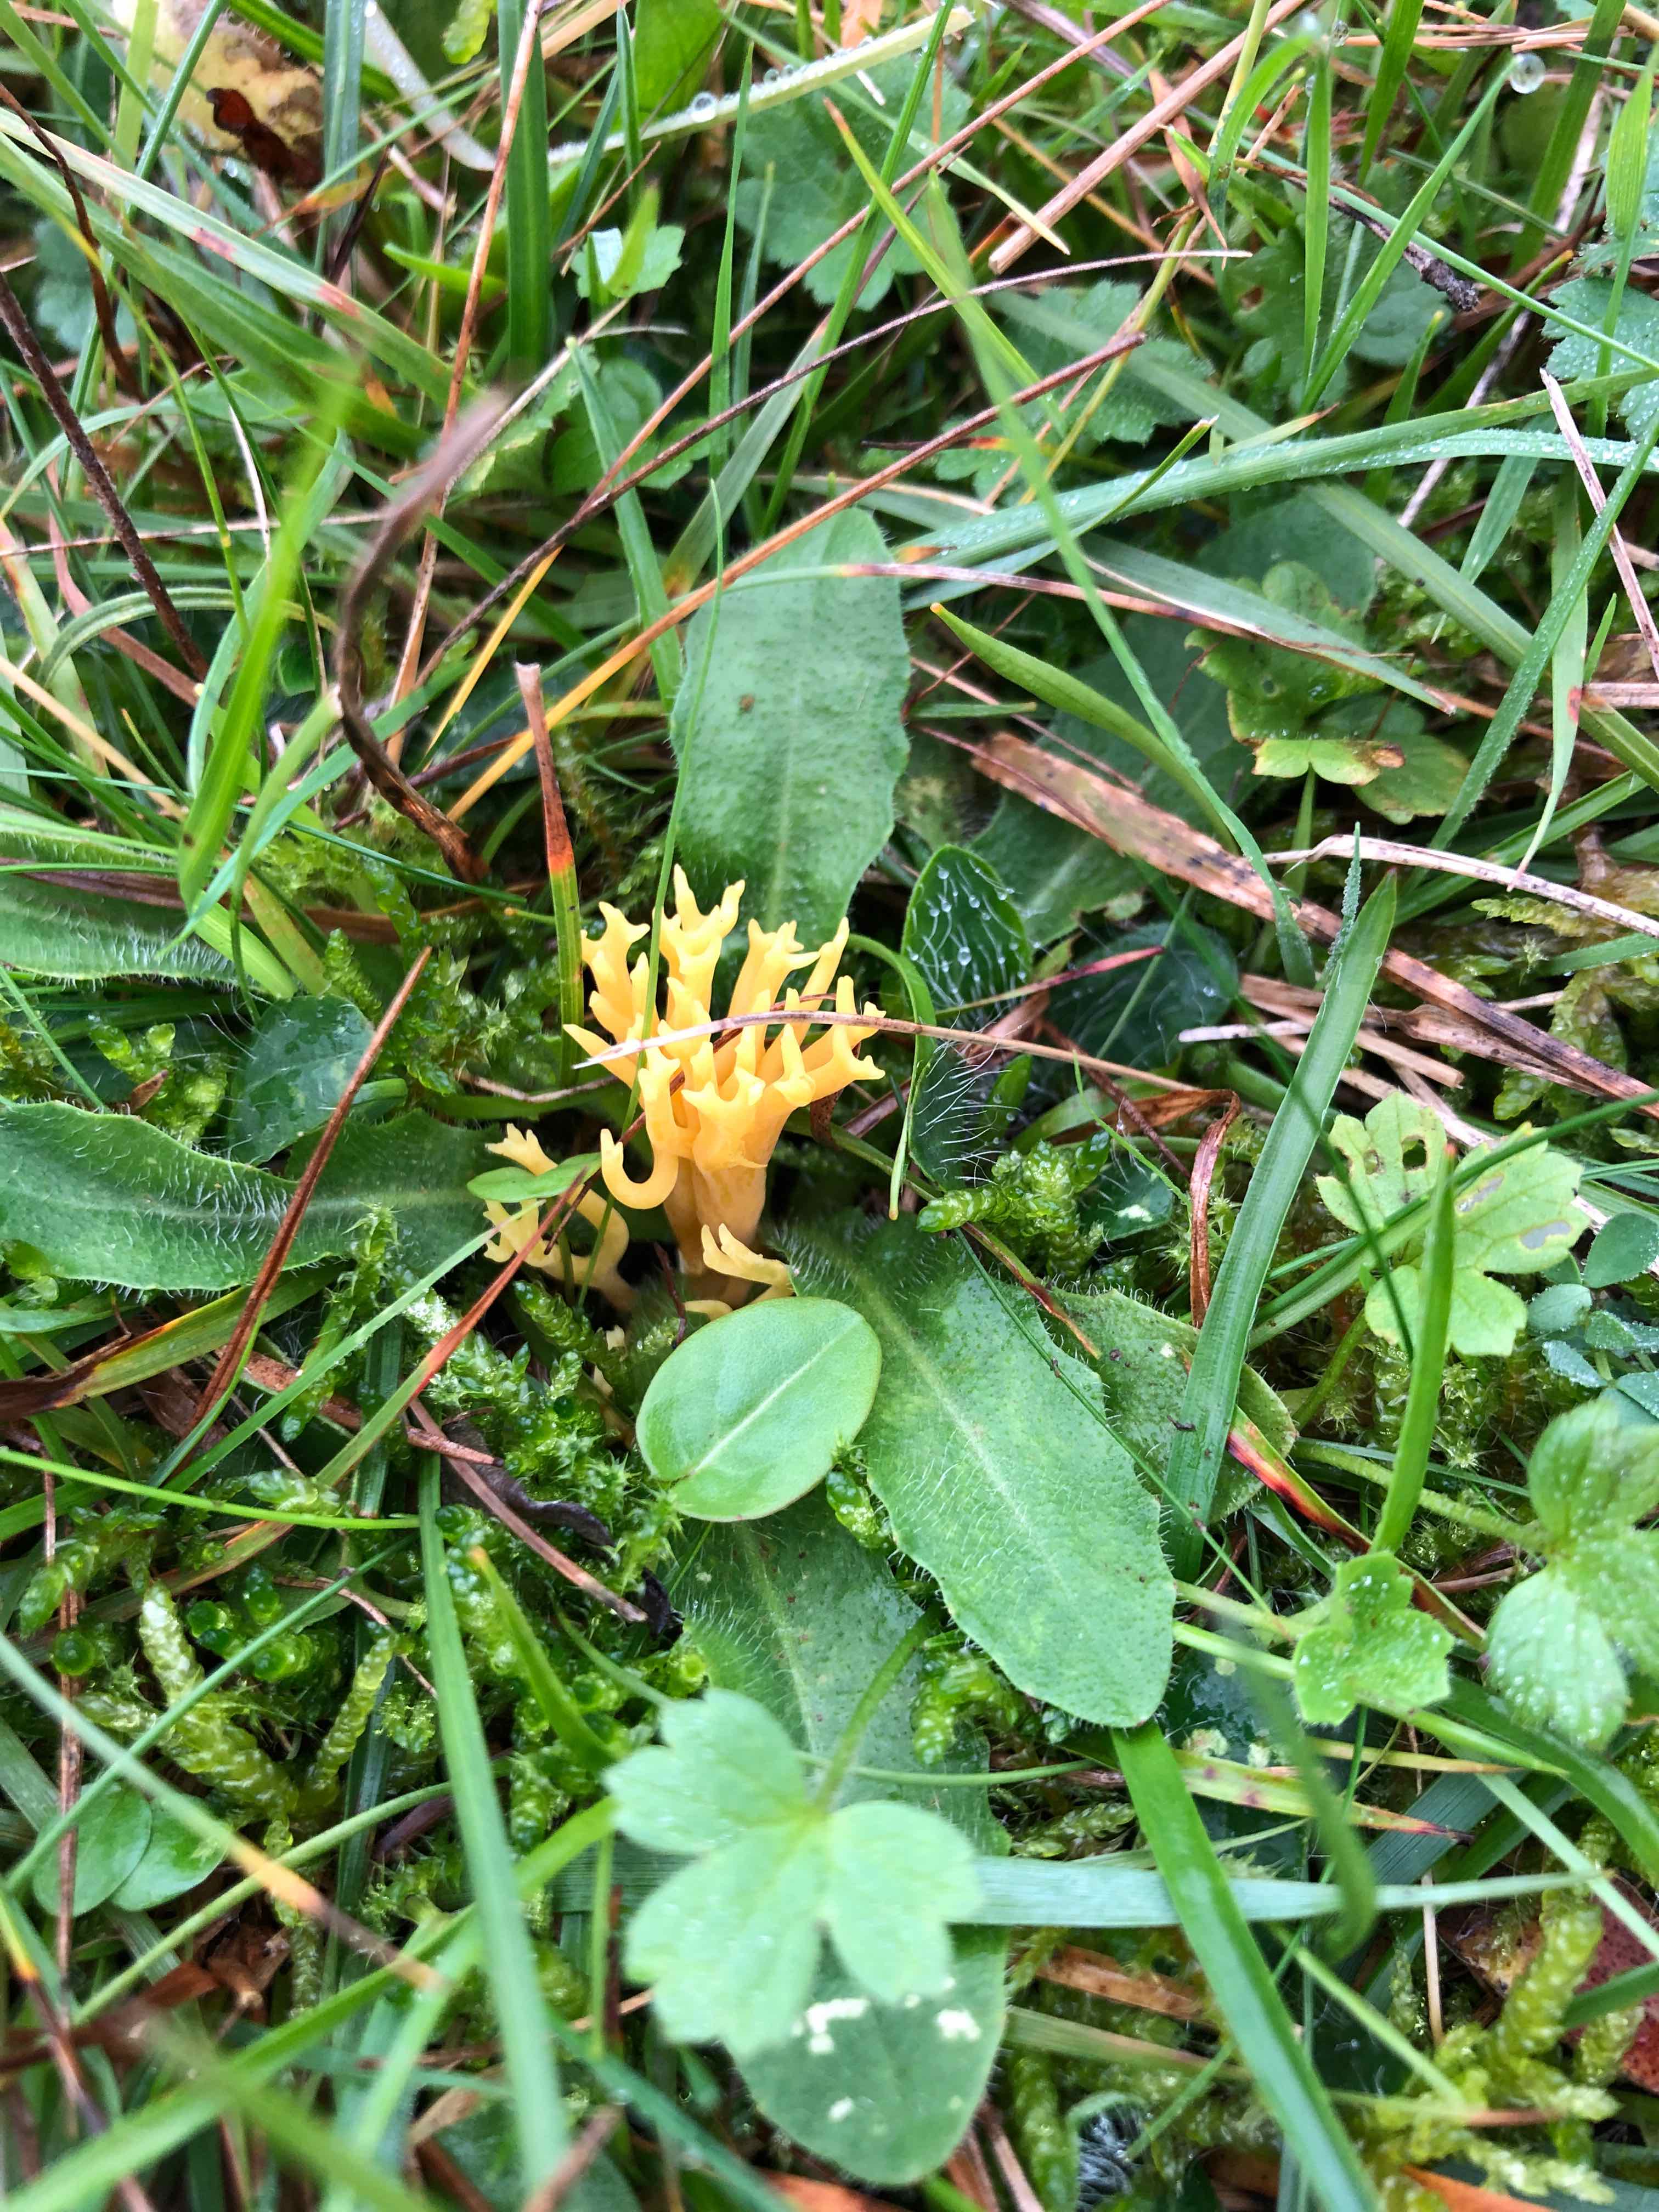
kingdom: Fungi
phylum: Basidiomycota
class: Agaricomycetes
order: Agaricales
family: Clavariaceae
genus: Clavulinopsis
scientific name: Clavulinopsis corniculata
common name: eng-køllesvamp
